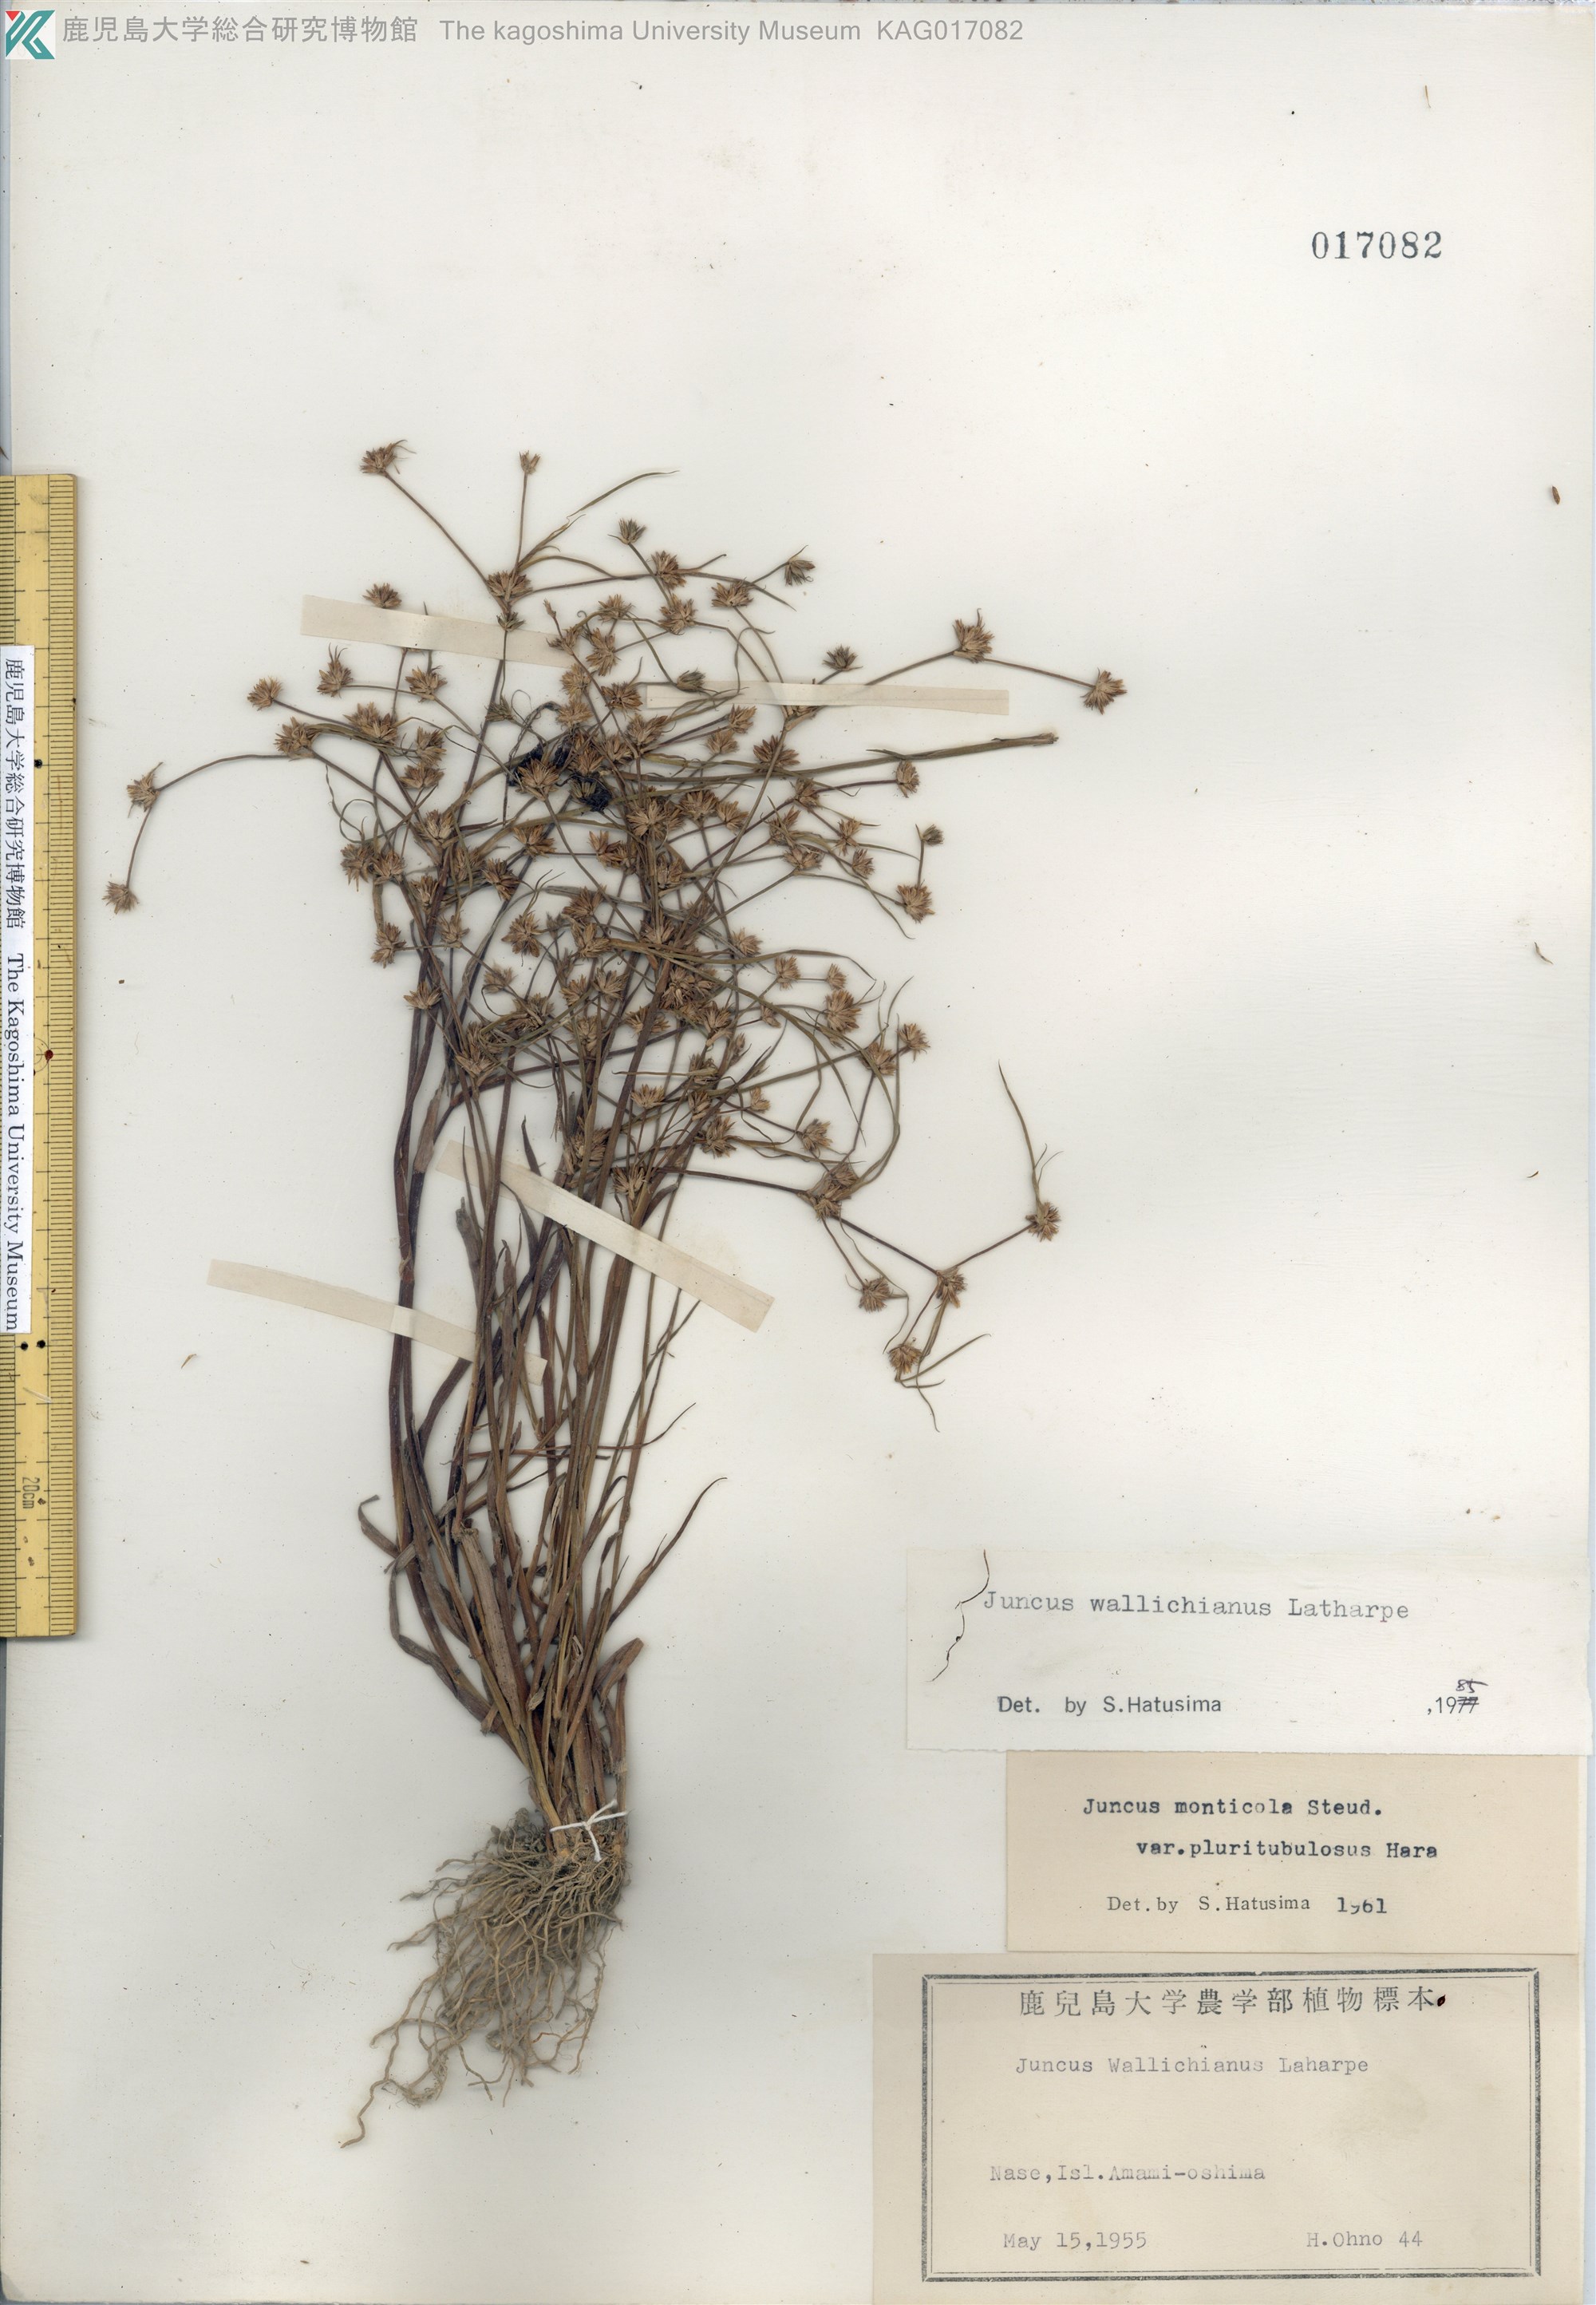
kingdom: Plantae
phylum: Tracheophyta
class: Liliopsida
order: Poales
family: Juncaceae
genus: Juncus
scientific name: Juncus prismatocarpus
